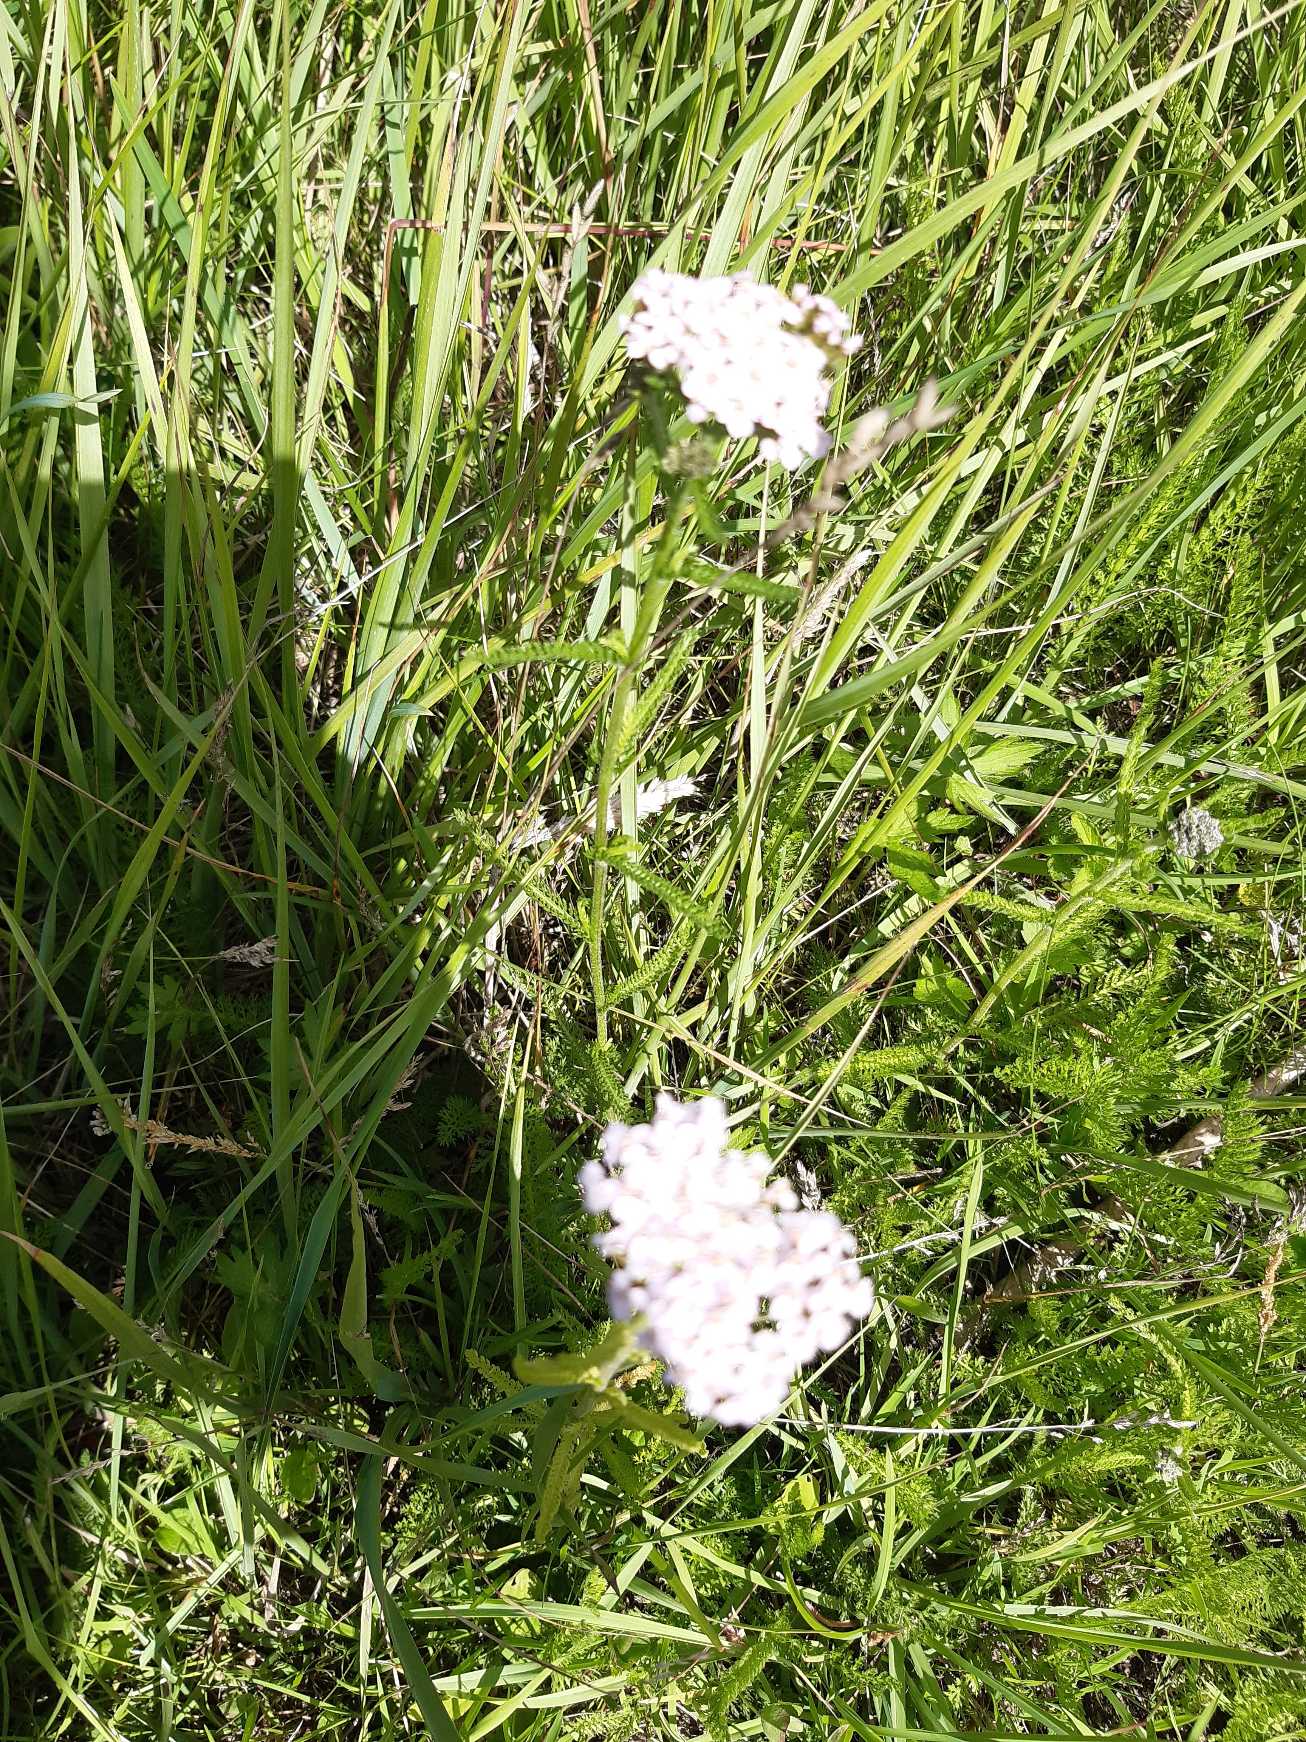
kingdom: Plantae
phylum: Tracheophyta
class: Magnoliopsida
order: Asterales
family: Asteraceae
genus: Achillea
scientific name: Achillea millefolium
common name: Almindelig røllike
